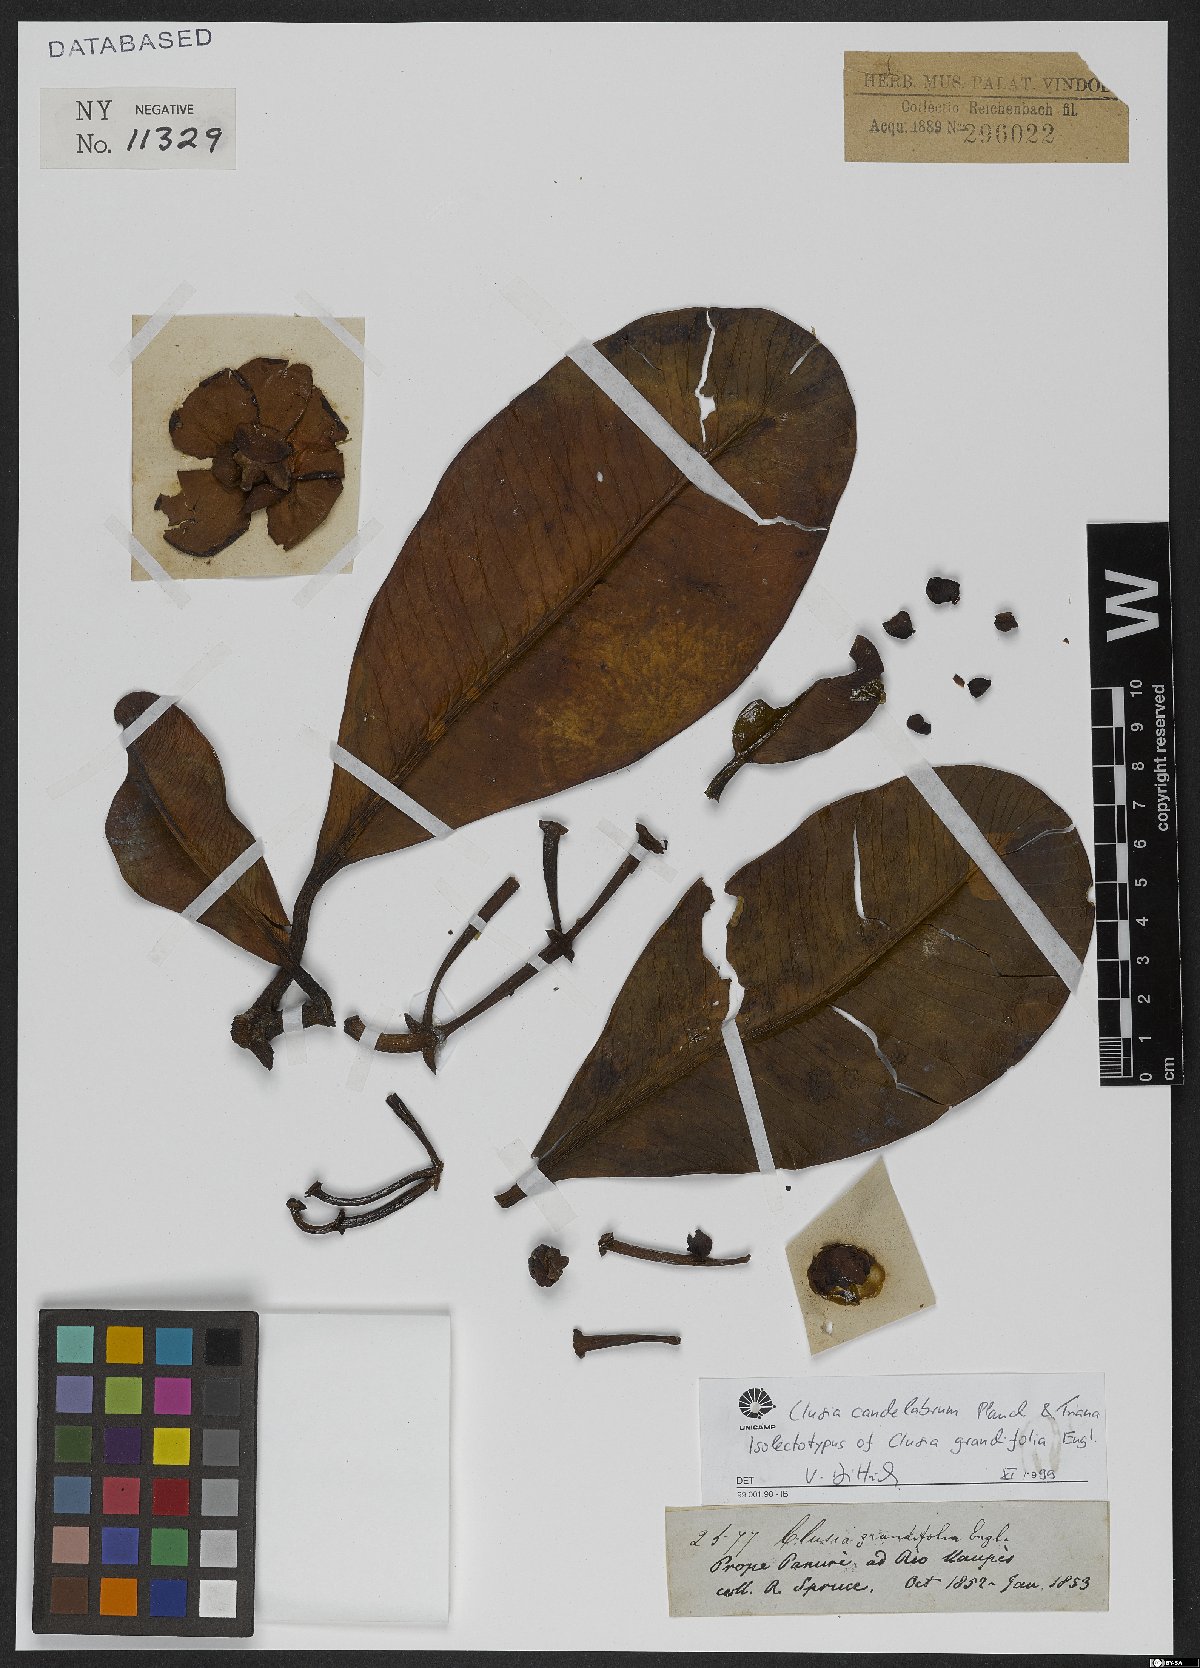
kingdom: Plantae
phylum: Tracheophyta
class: Magnoliopsida
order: Malpighiales
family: Clusiaceae
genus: Clusia
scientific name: Clusia candelabrum
